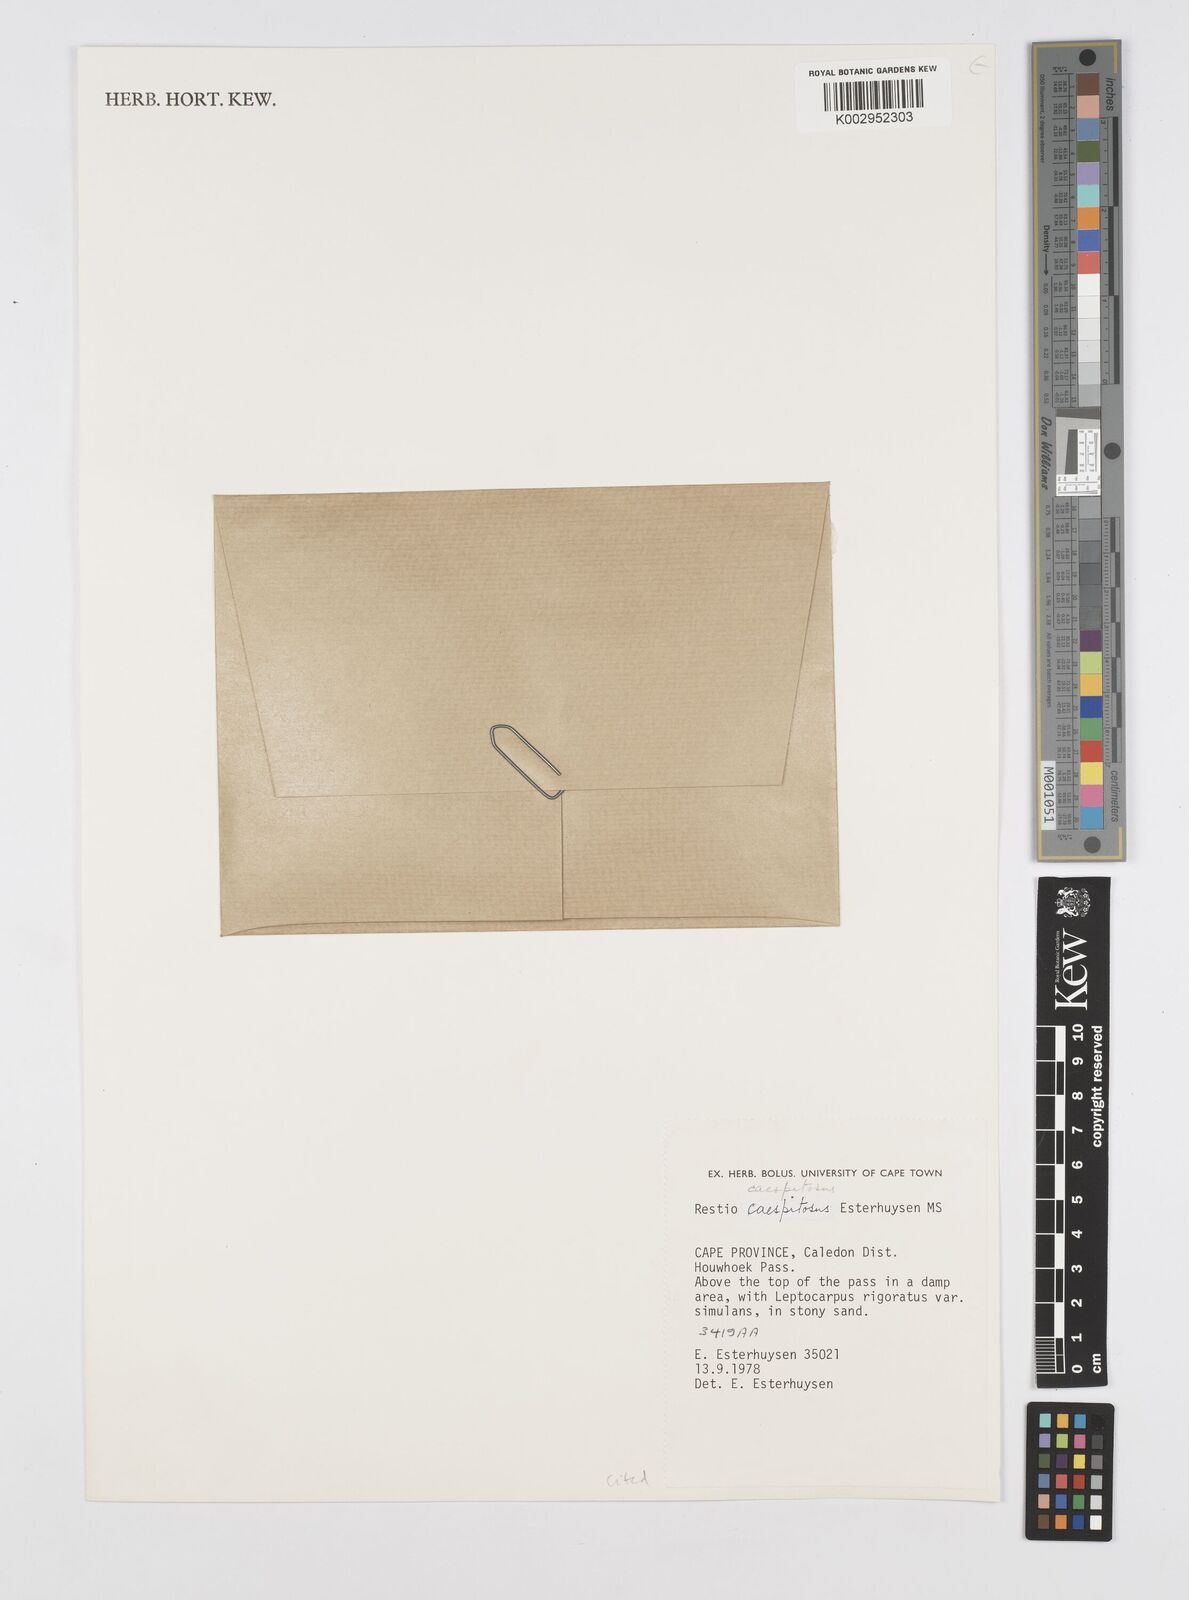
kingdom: Plantae
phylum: Tracheophyta
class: Liliopsida
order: Poales
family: Restionaceae
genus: Restio
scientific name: Restio caespitosus
